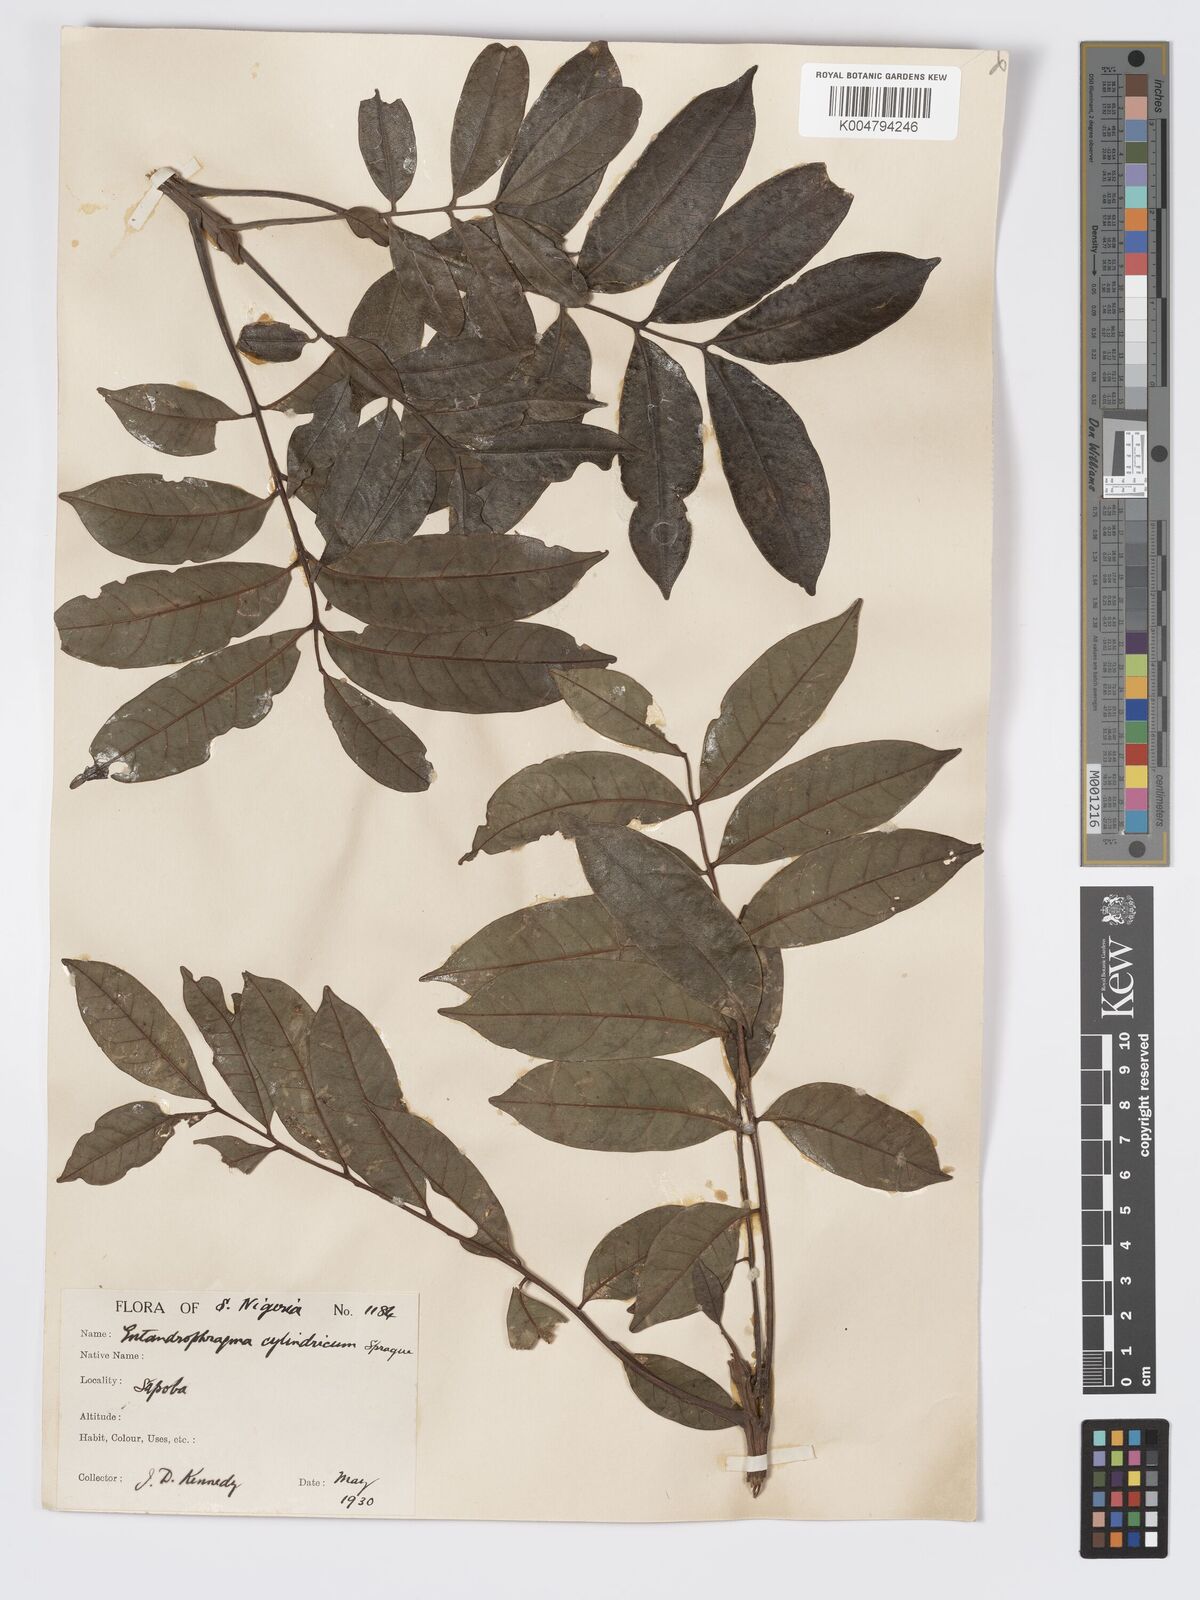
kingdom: Plantae
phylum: Tracheophyta
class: Magnoliopsida
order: Sapindales
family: Meliaceae
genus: Entandrophragma
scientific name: Entandrophragma cylindricum
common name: Sapele
